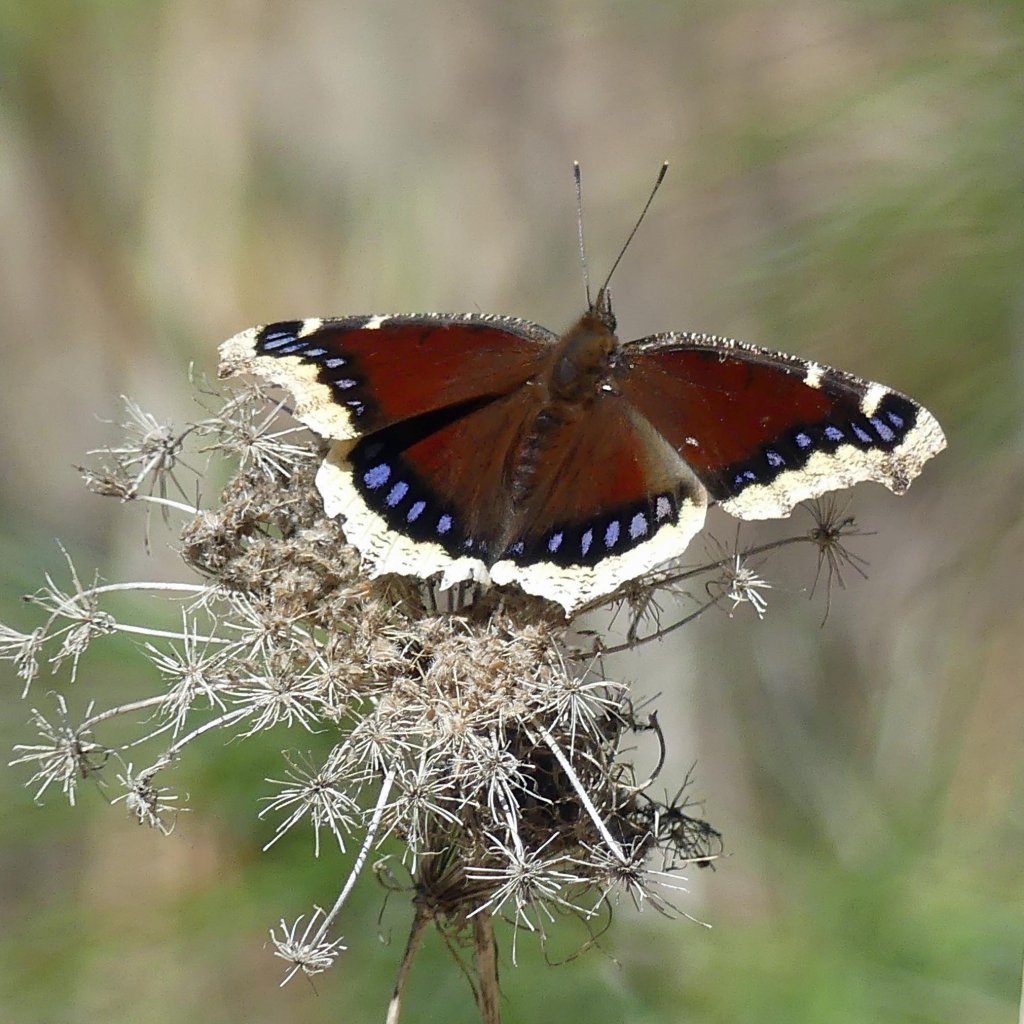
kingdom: Animalia
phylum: Arthropoda
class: Insecta
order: Lepidoptera
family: Nymphalidae
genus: Nymphalis
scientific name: Nymphalis antiopa
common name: Mourning Cloak
